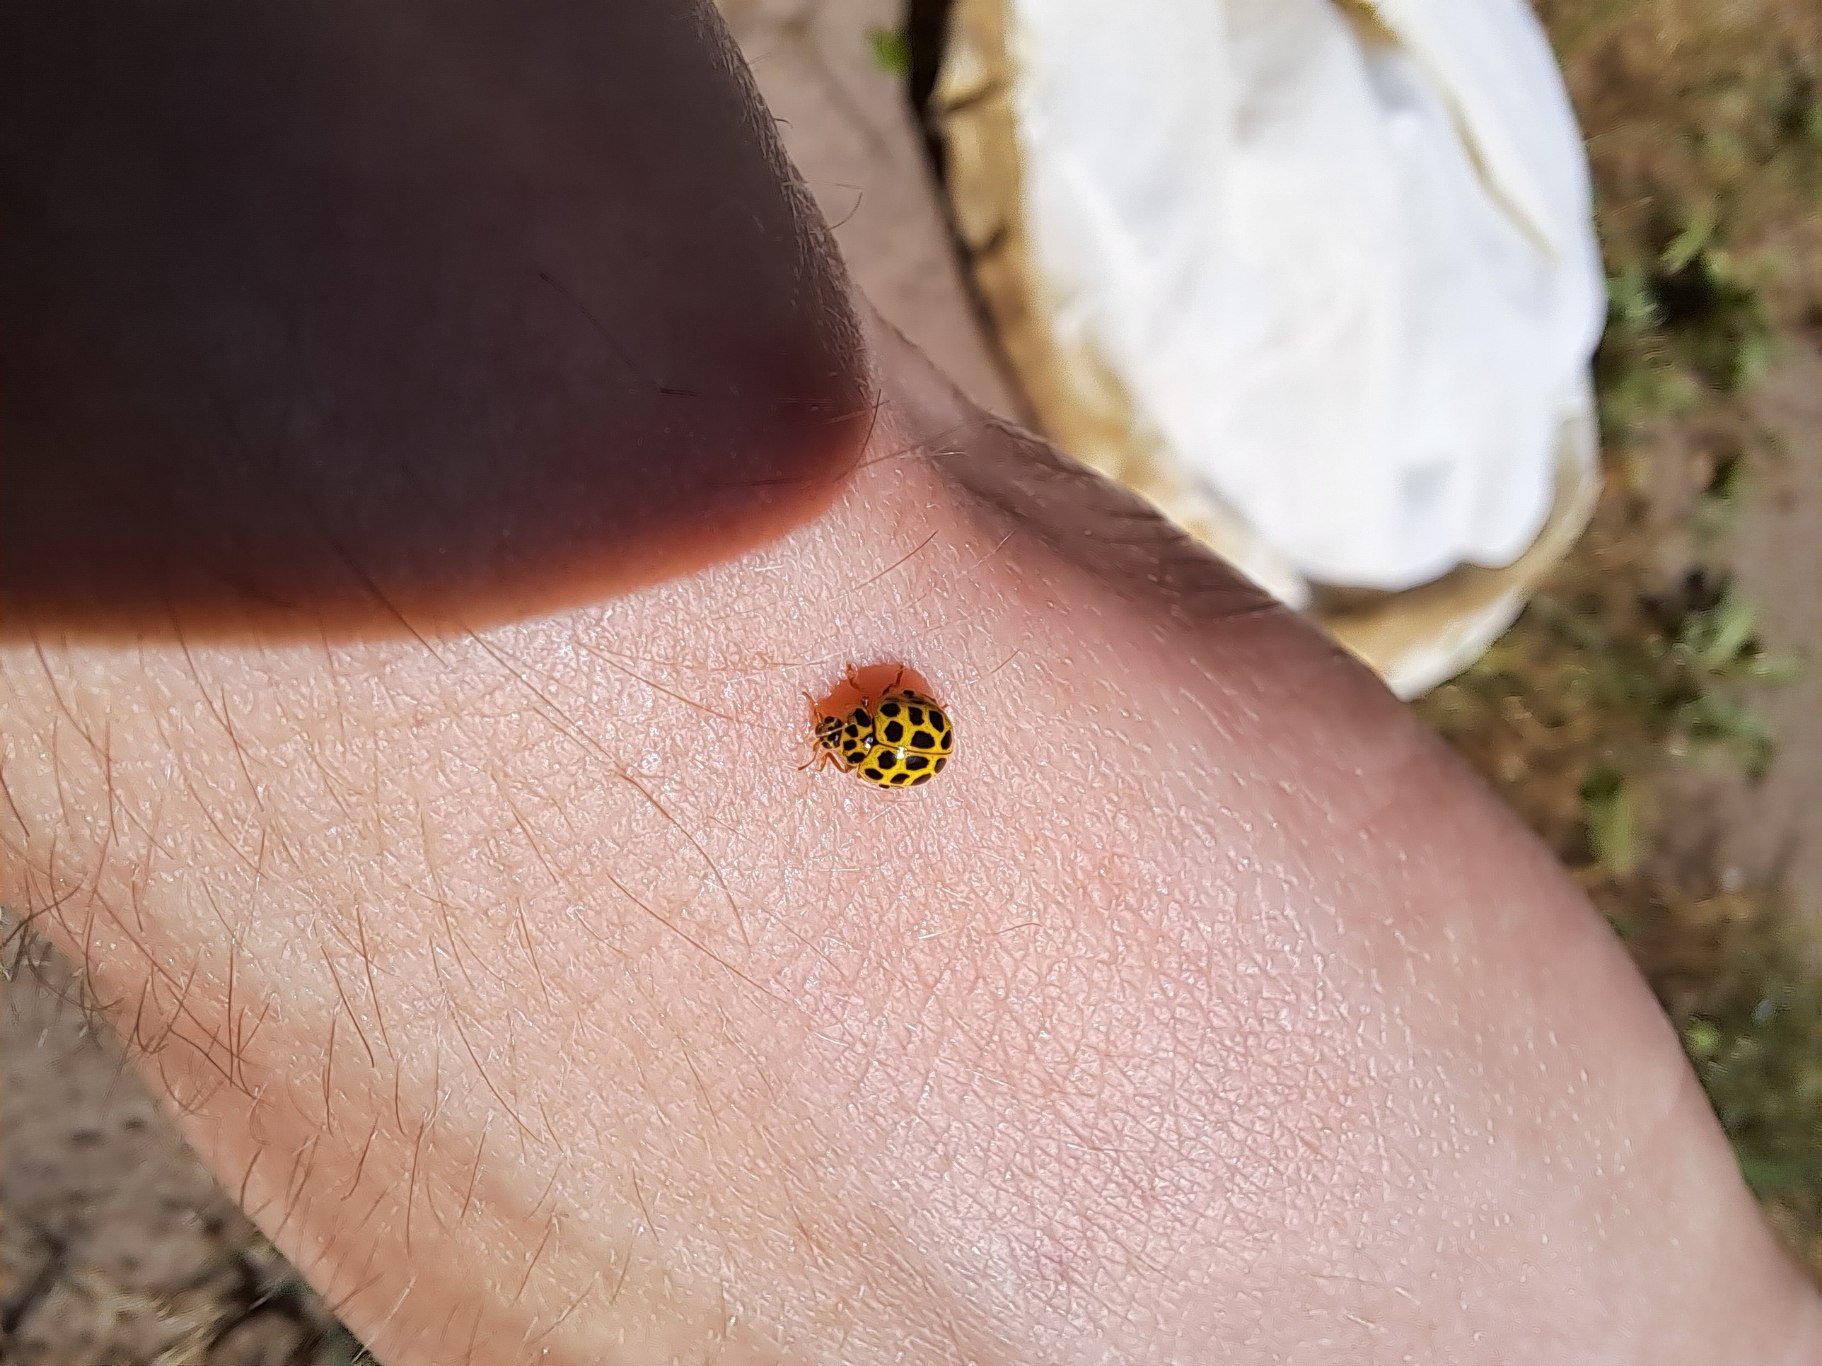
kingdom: Animalia
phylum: Arthropoda
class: Insecta
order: Coleoptera
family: Coccinellidae
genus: Psyllobora
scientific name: Psyllobora vigintiduopunctata
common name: Toogtyveplettet mariehøne
